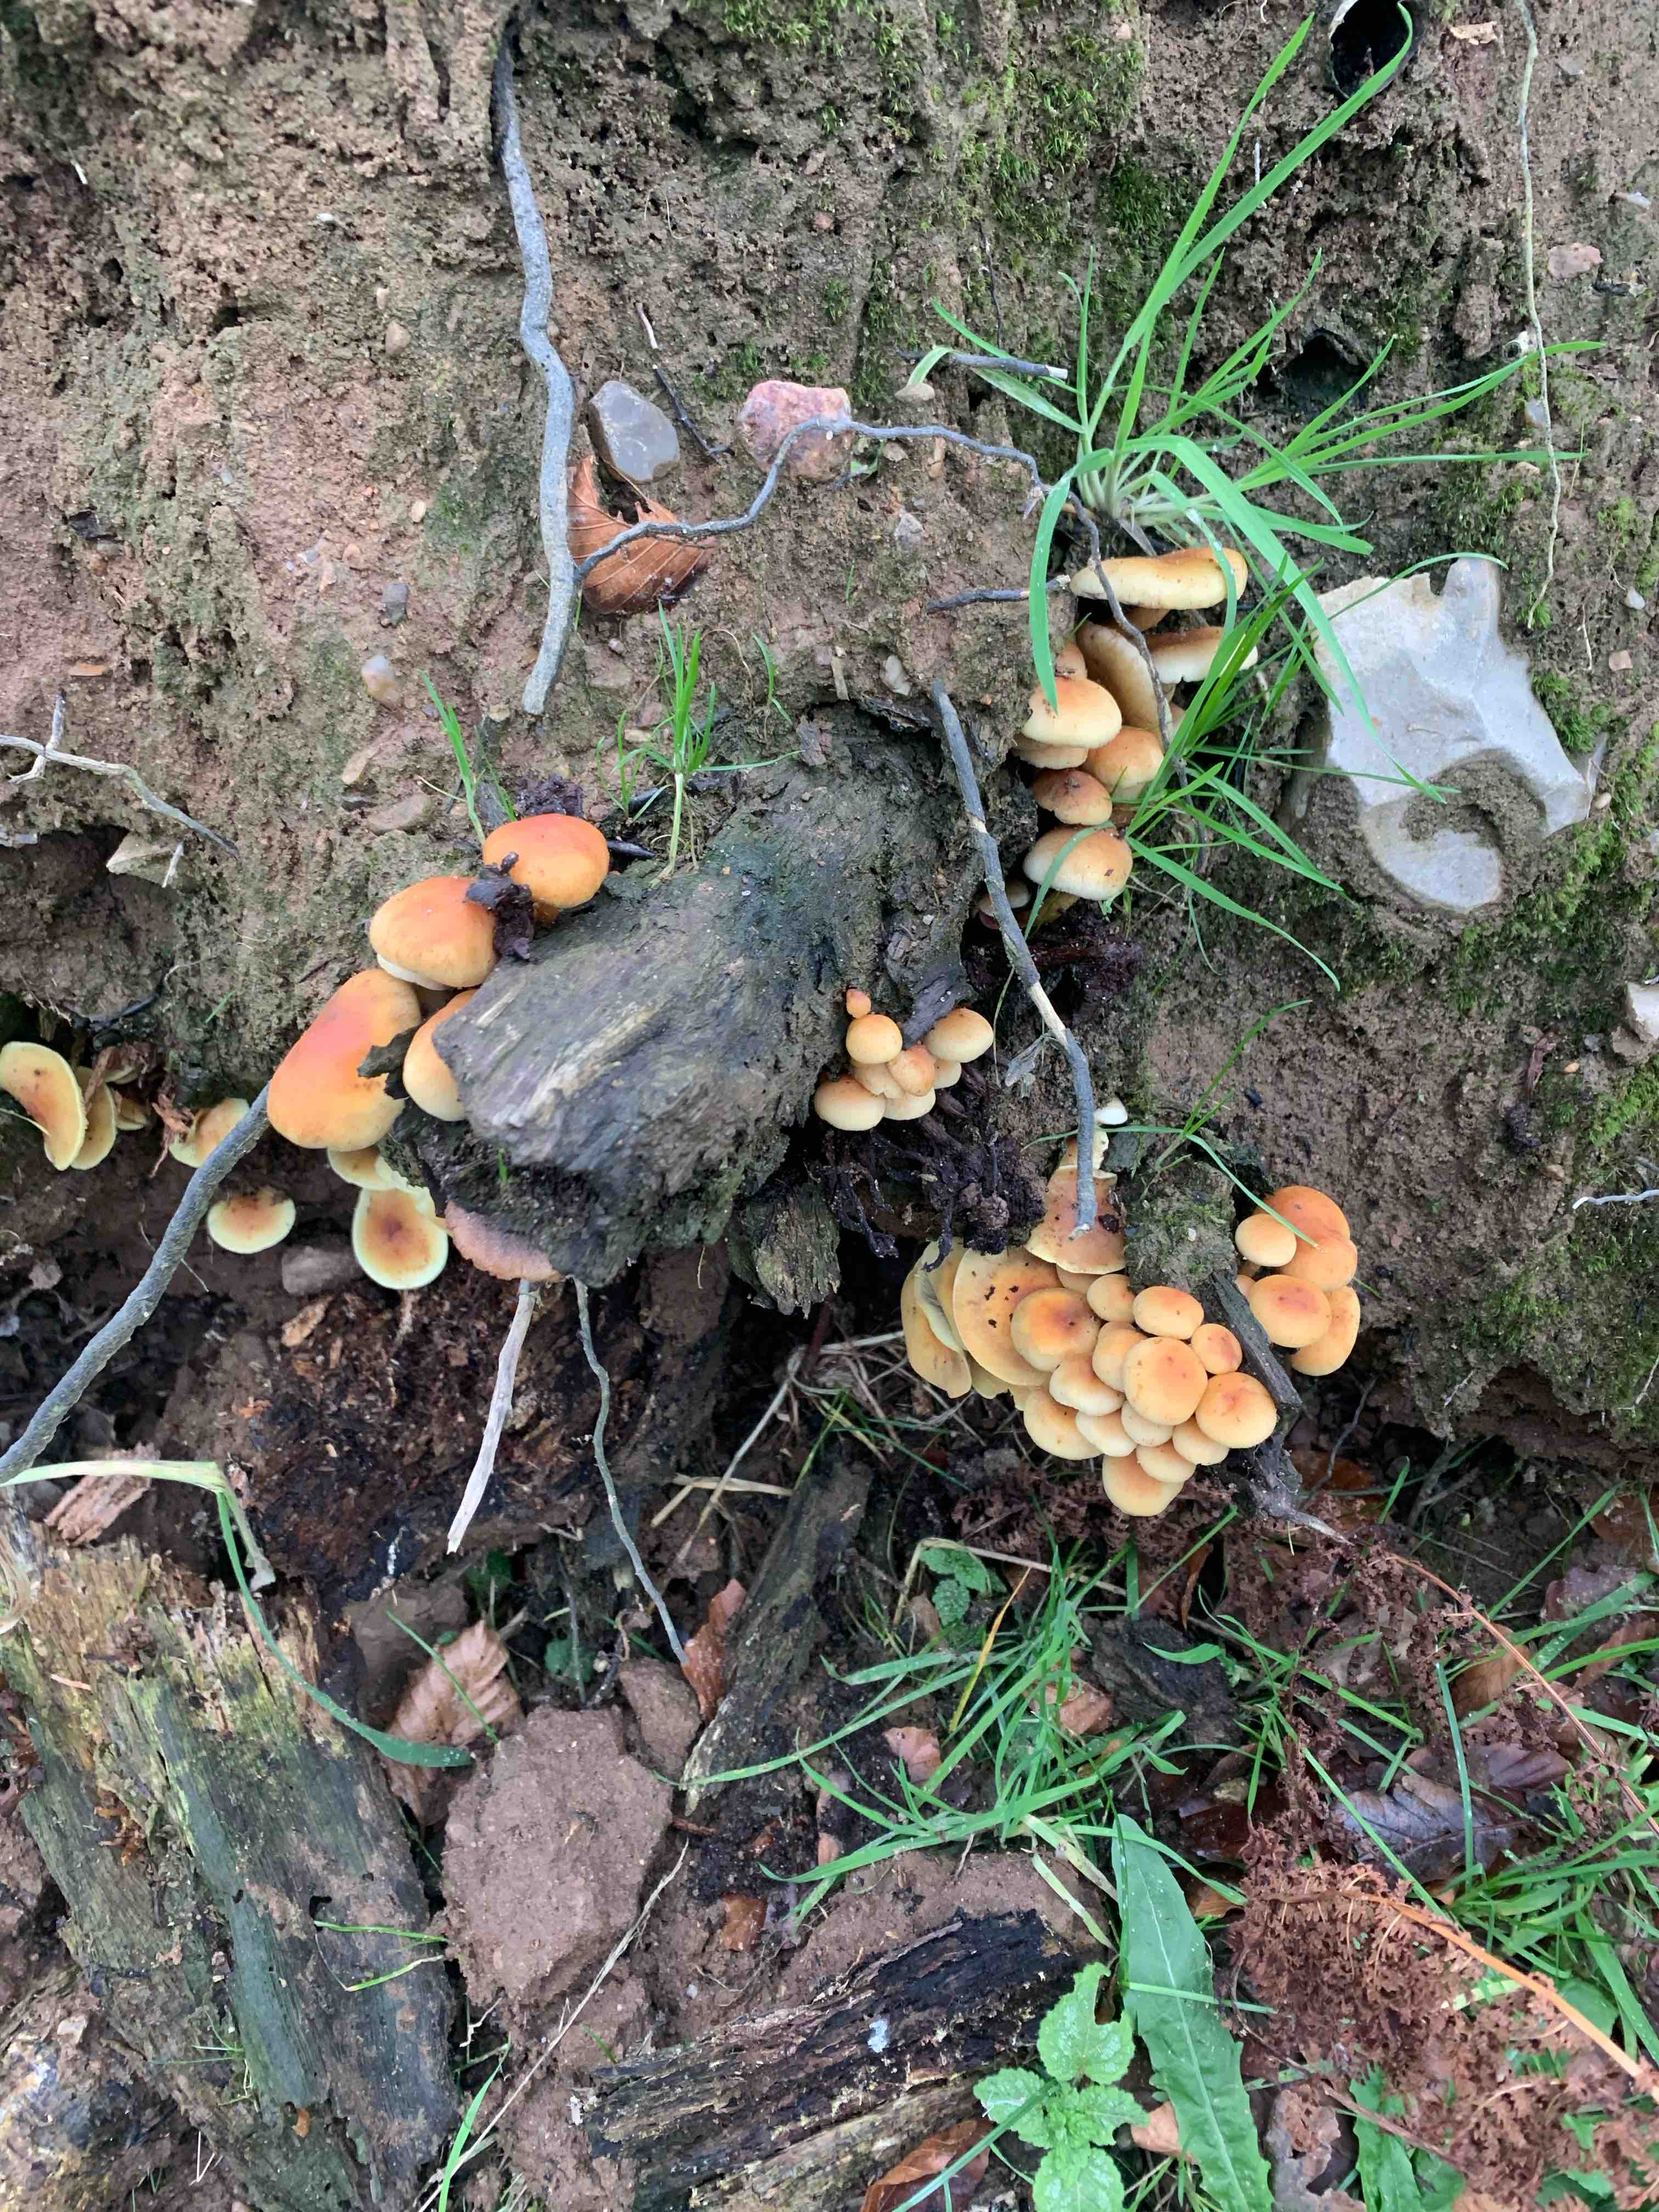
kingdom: Fungi
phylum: Basidiomycota
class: Agaricomycetes
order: Agaricales
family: Strophariaceae
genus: Hypholoma
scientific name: Hypholoma fasciculare
